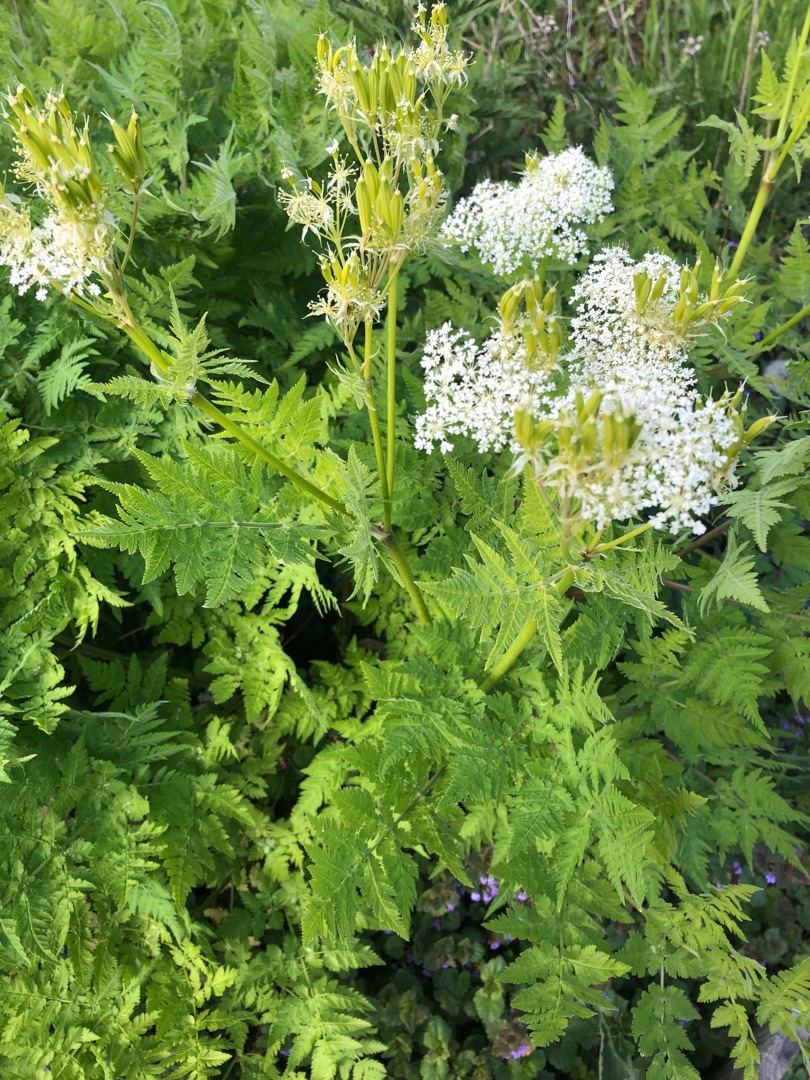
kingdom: Plantae
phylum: Tracheophyta
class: Magnoliopsida
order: Apiales
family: Apiaceae
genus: Myrrhis
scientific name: Myrrhis odorata
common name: Sødskærm
